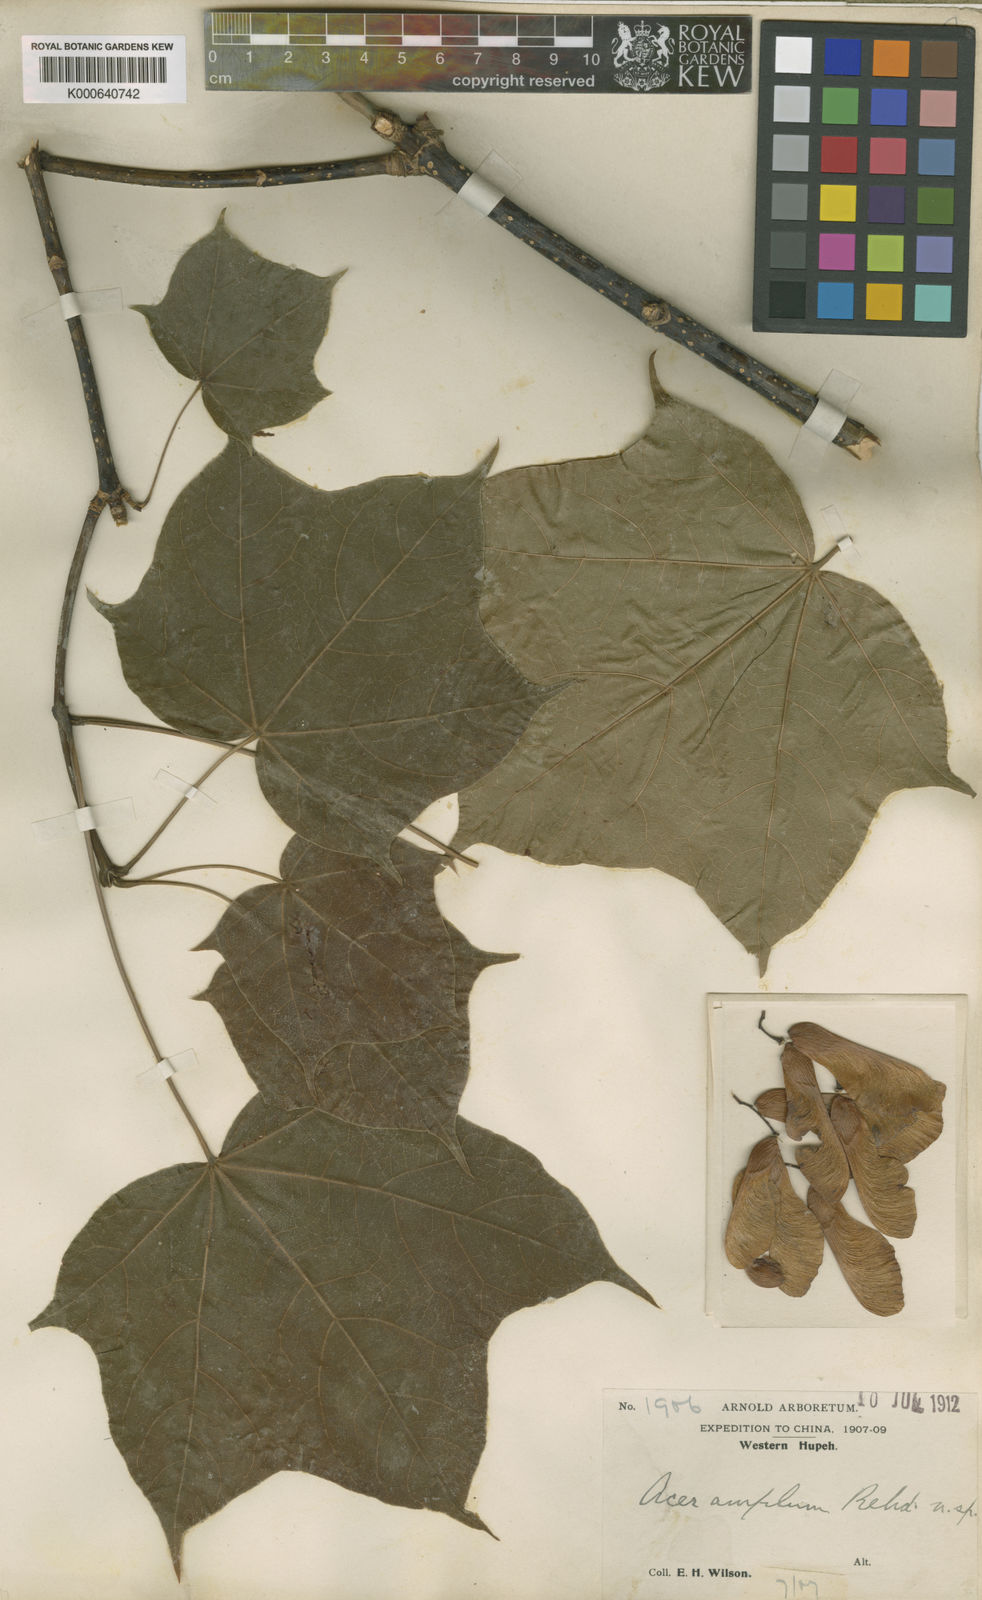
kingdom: Plantae
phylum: Tracheophyta
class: Magnoliopsida
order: Sapindales
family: Sapindaceae
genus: Acer
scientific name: Acer amplum
